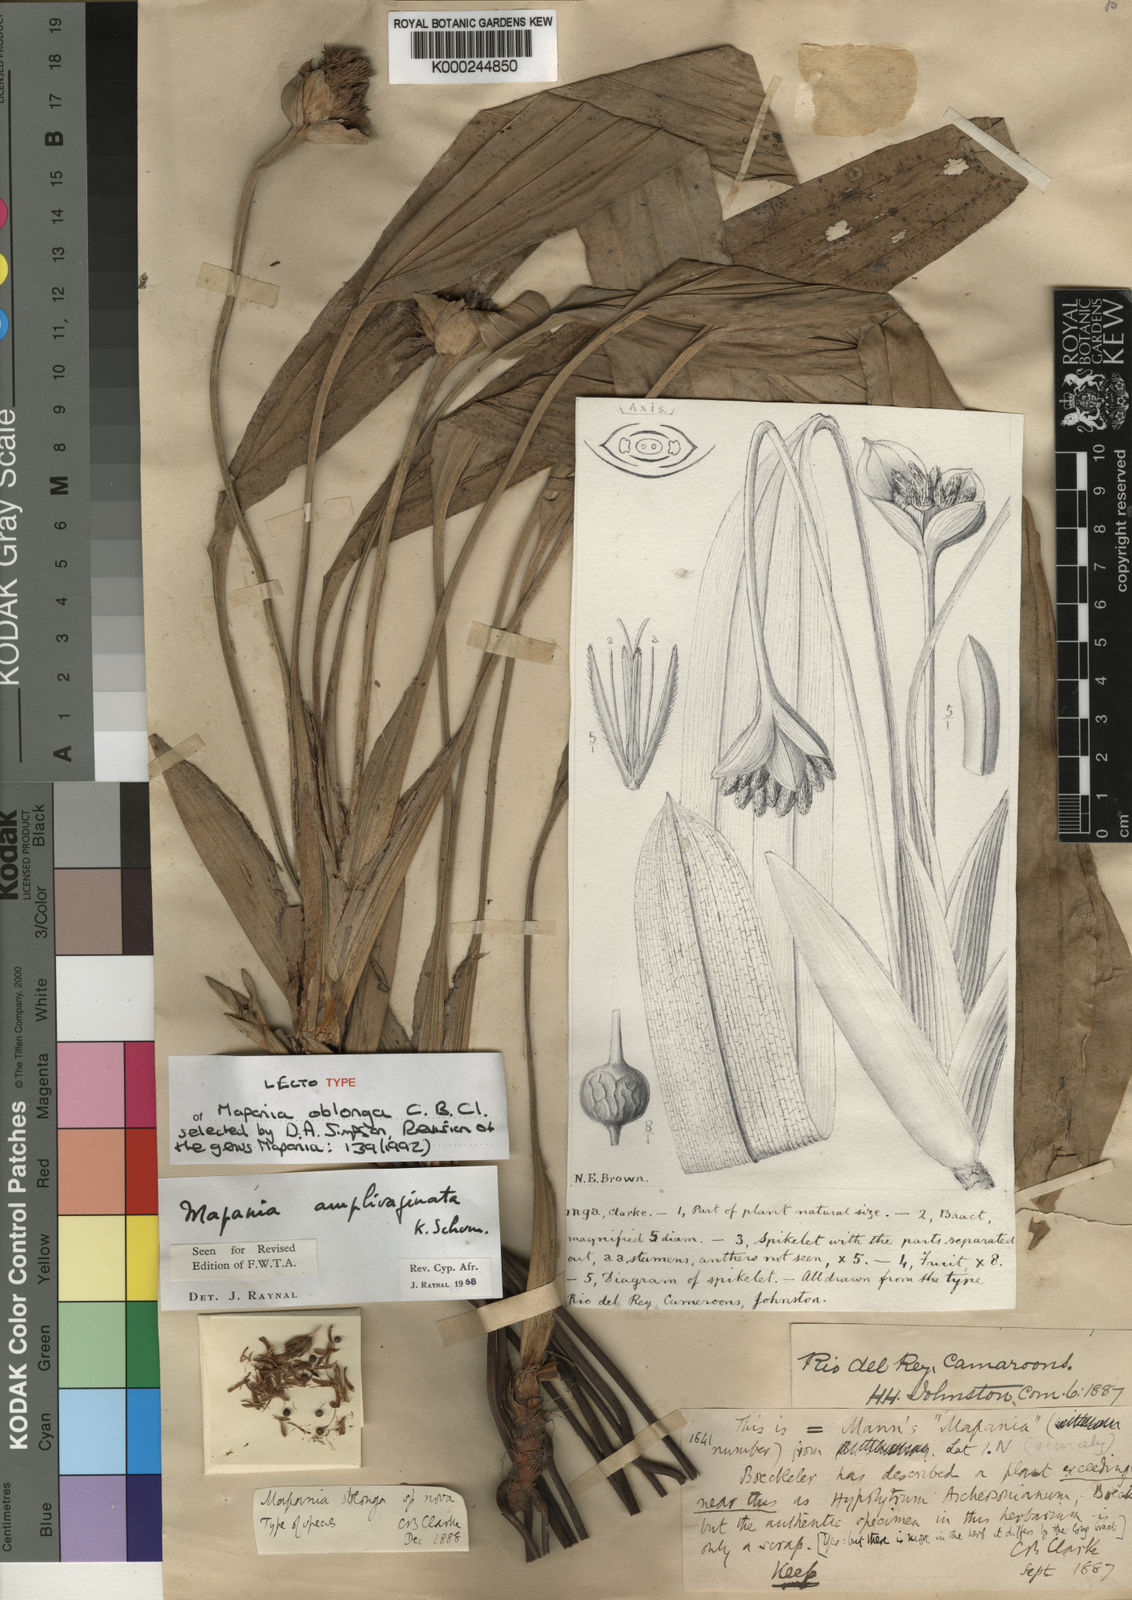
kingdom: Plantae
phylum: Tracheophyta
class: Liliopsida
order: Poales
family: Cyperaceae
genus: Mapania
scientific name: Mapania amplivaginata
